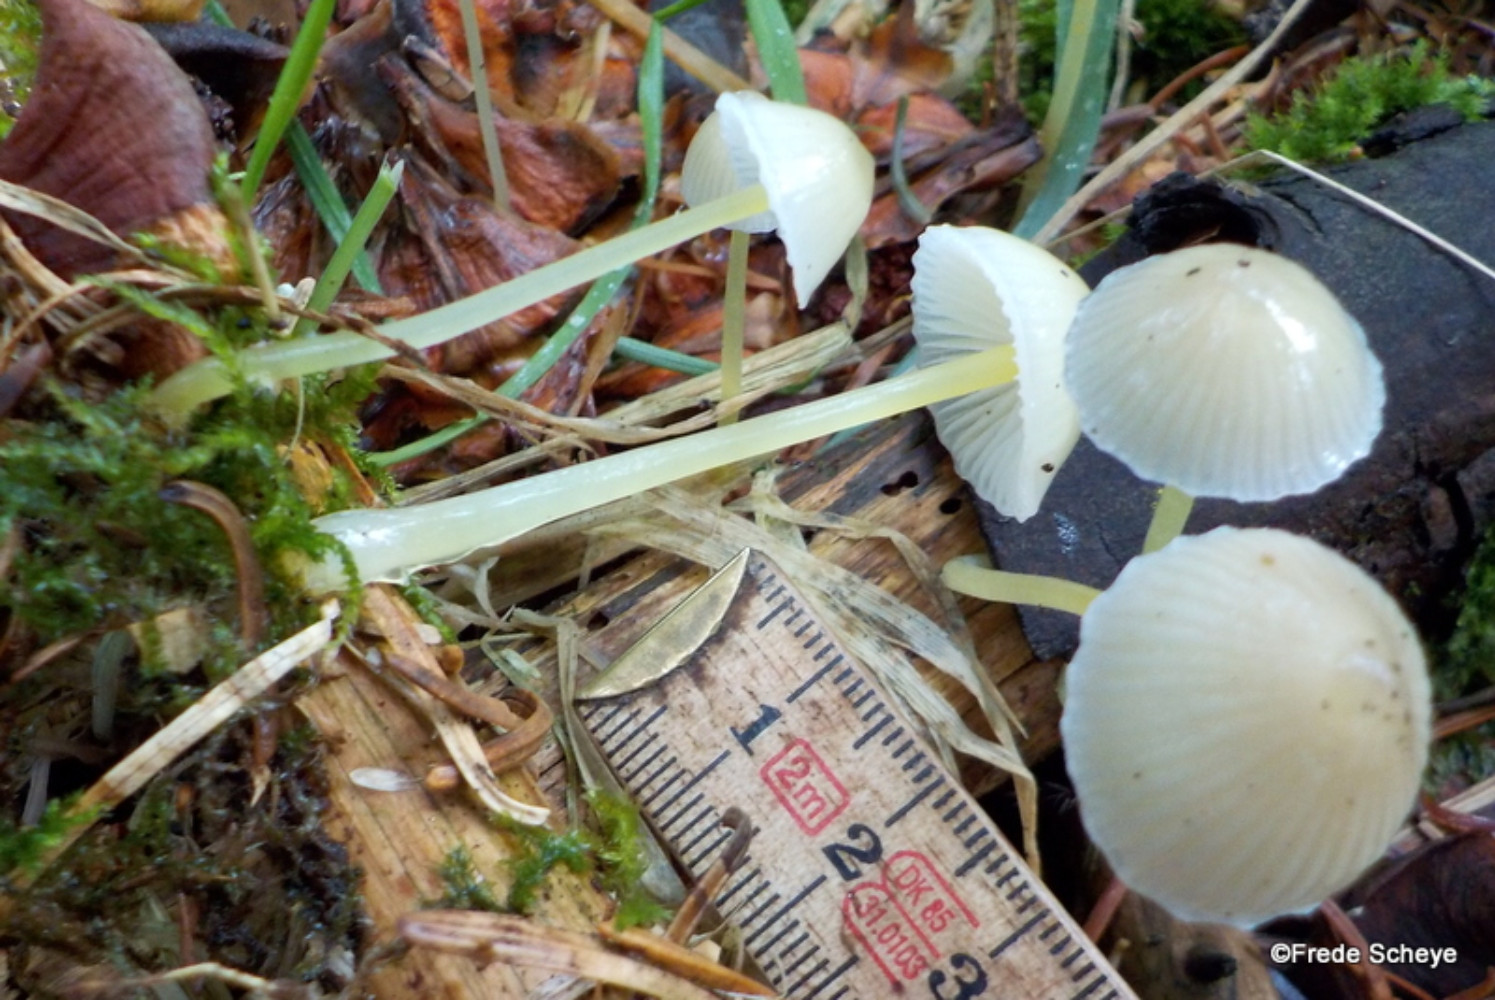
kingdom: Fungi
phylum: Basidiomycota
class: Agaricomycetes
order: Agaricales
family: Mycenaceae
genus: Mycena
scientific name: Mycena epipterygia
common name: gulstokket huesvamp
